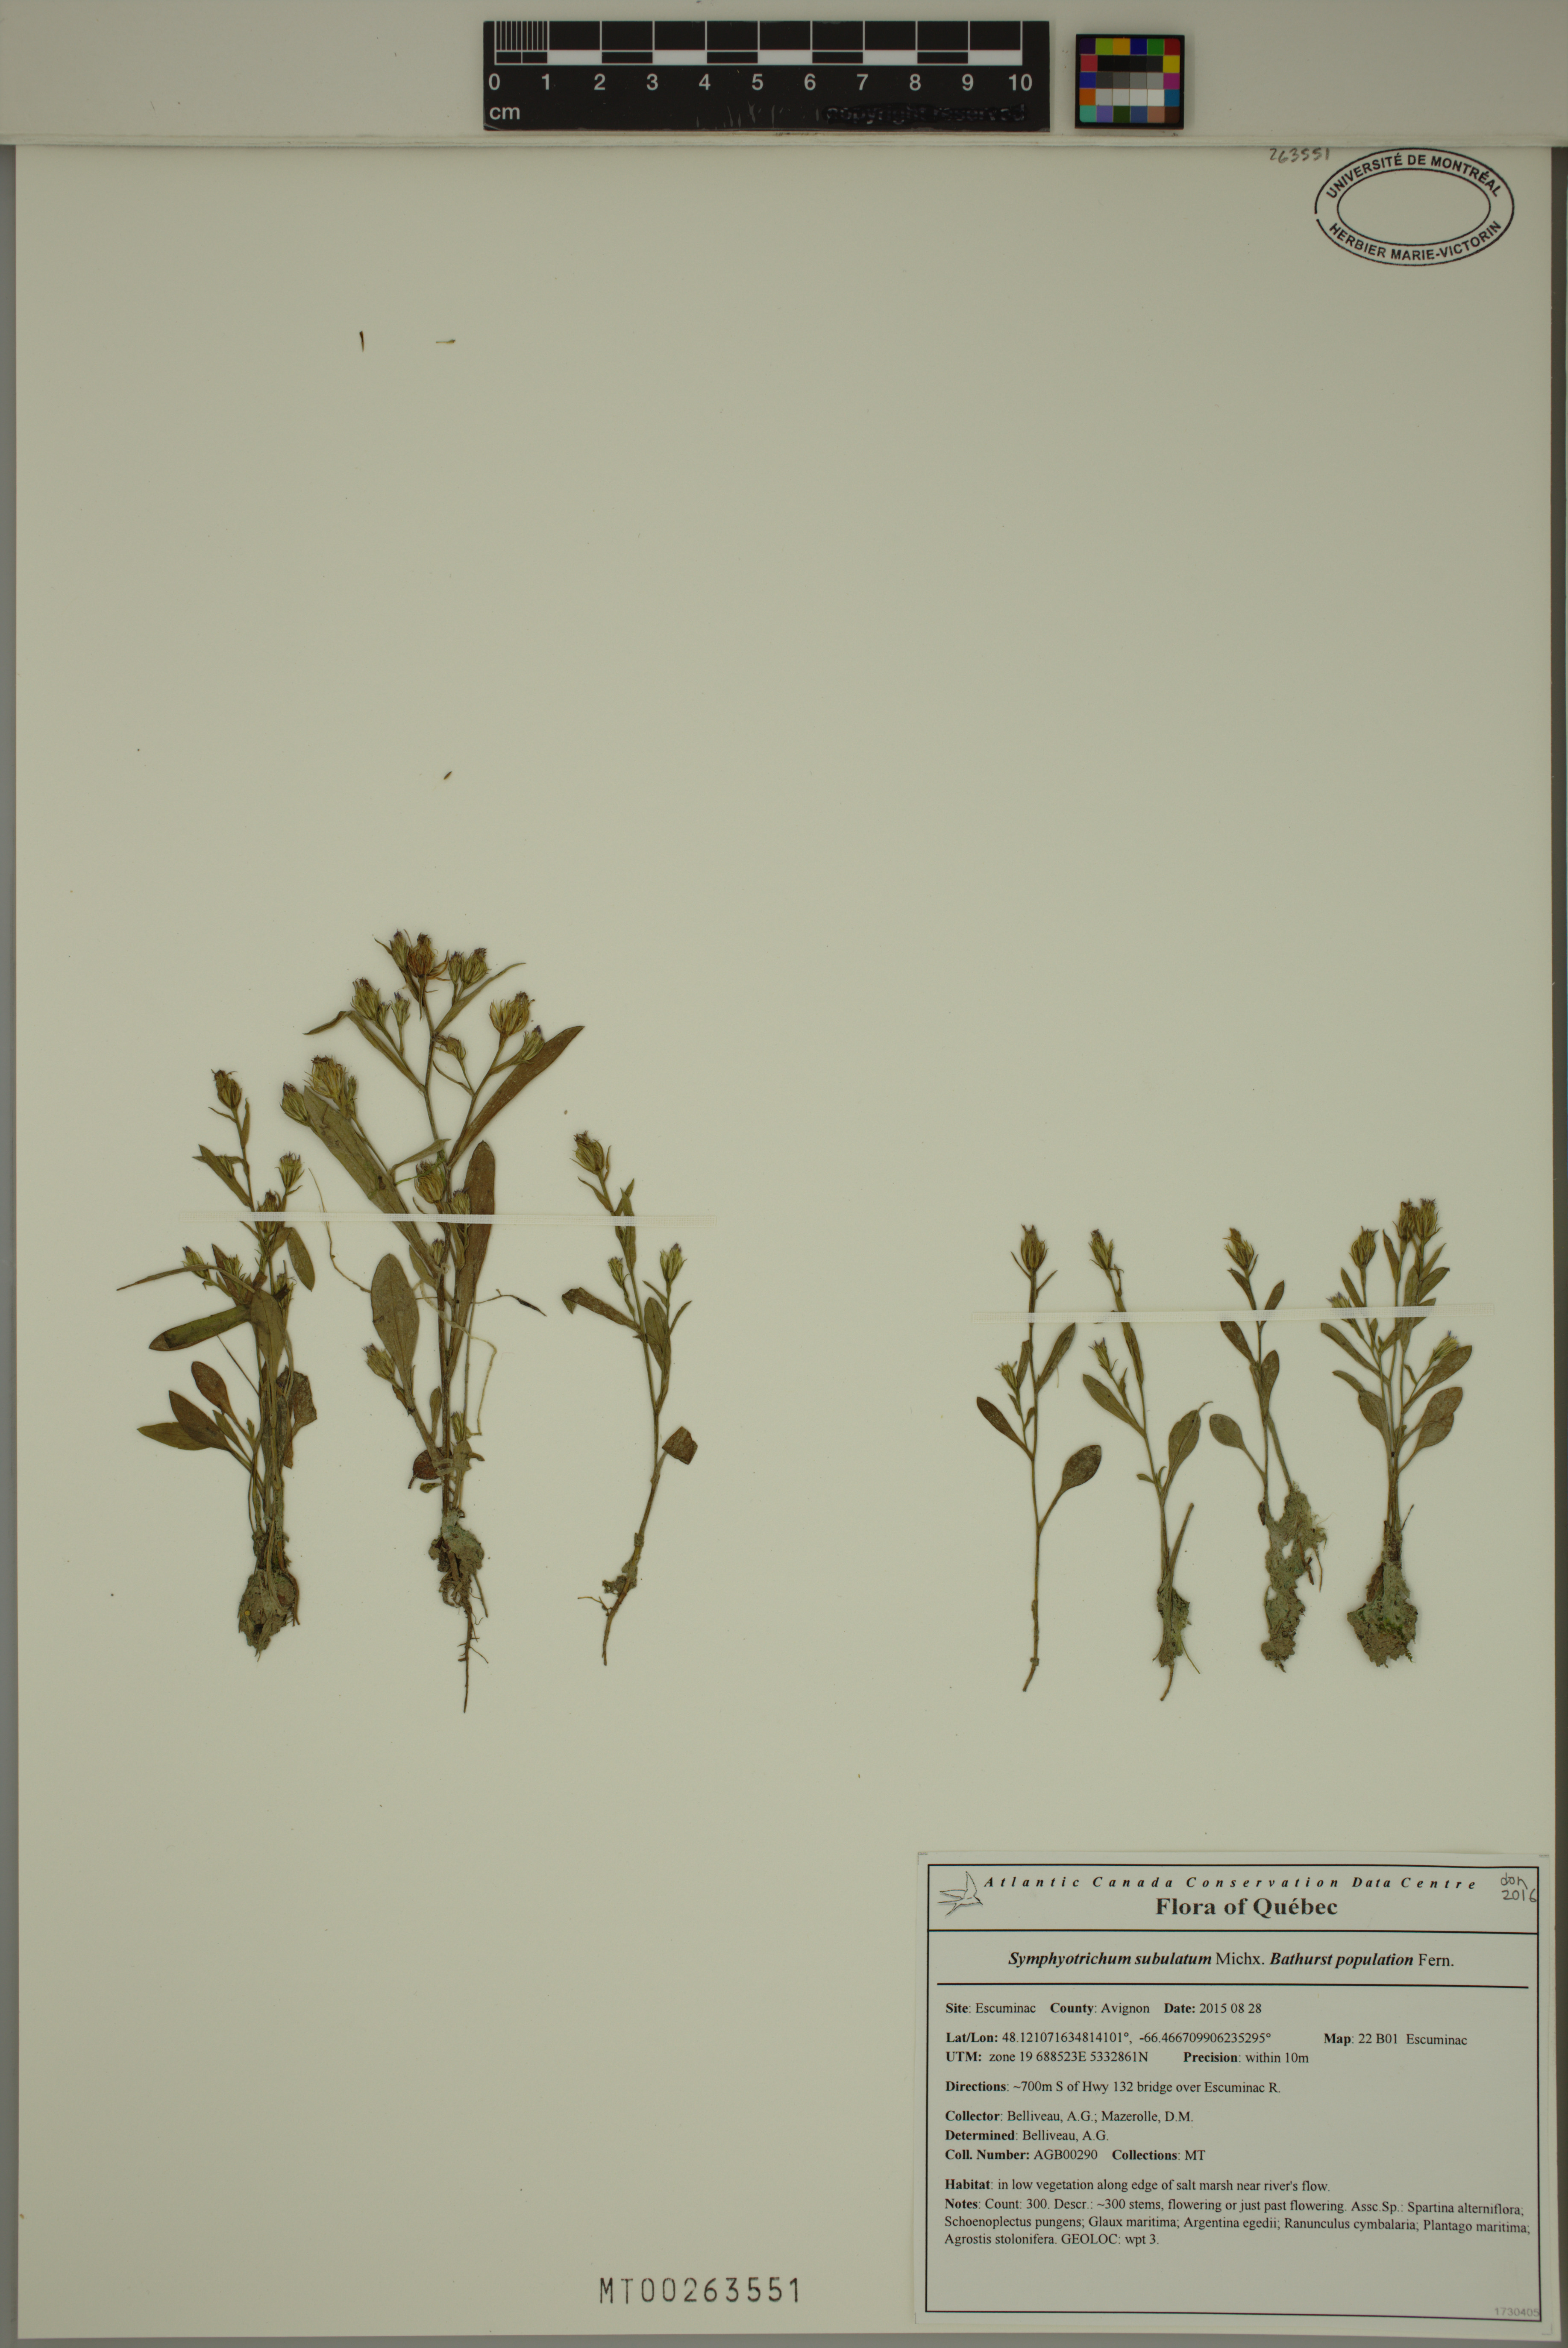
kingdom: Plantae
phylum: Tracheophyta
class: Magnoliopsida
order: Asterales
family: Asteraceae
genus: Symphyotrichum
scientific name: Symphyotrichum subulatum
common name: Annual saltmarsh aster
